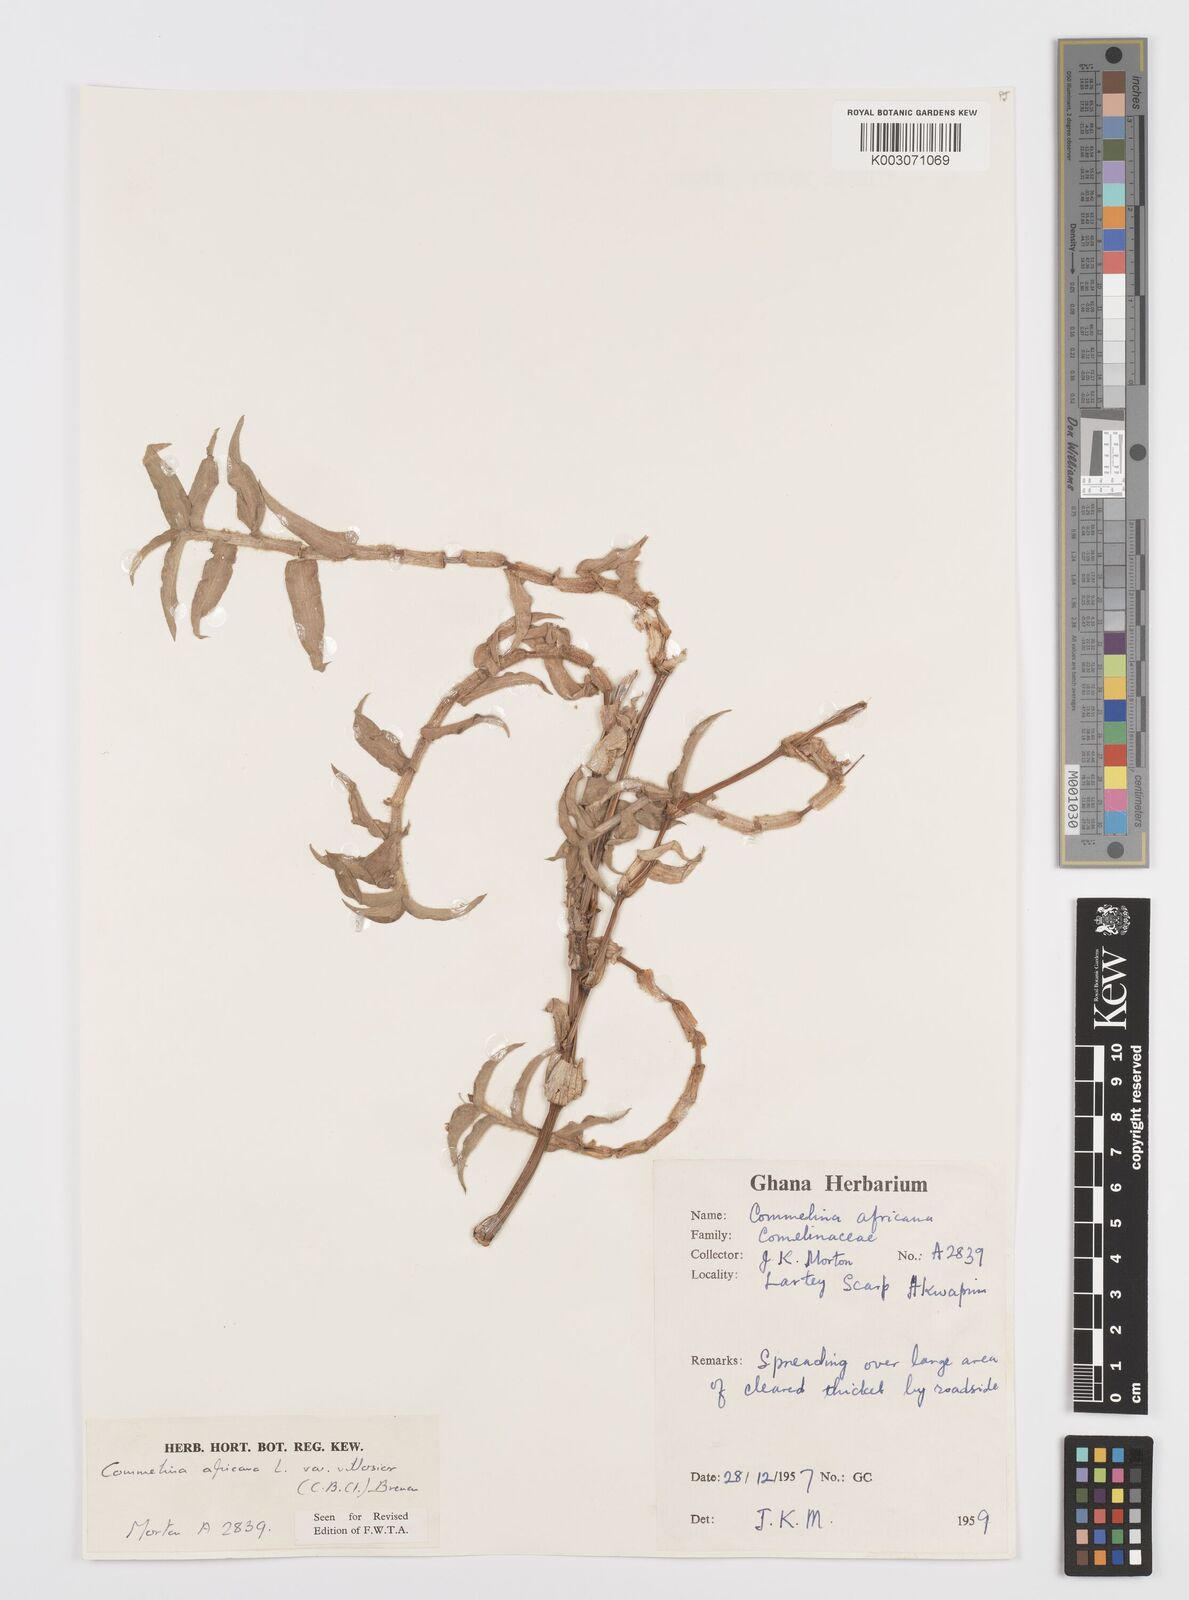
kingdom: Plantae
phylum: Tracheophyta
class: Liliopsida
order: Commelinales
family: Commelinaceae
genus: Commelina
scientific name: Commelina africana
